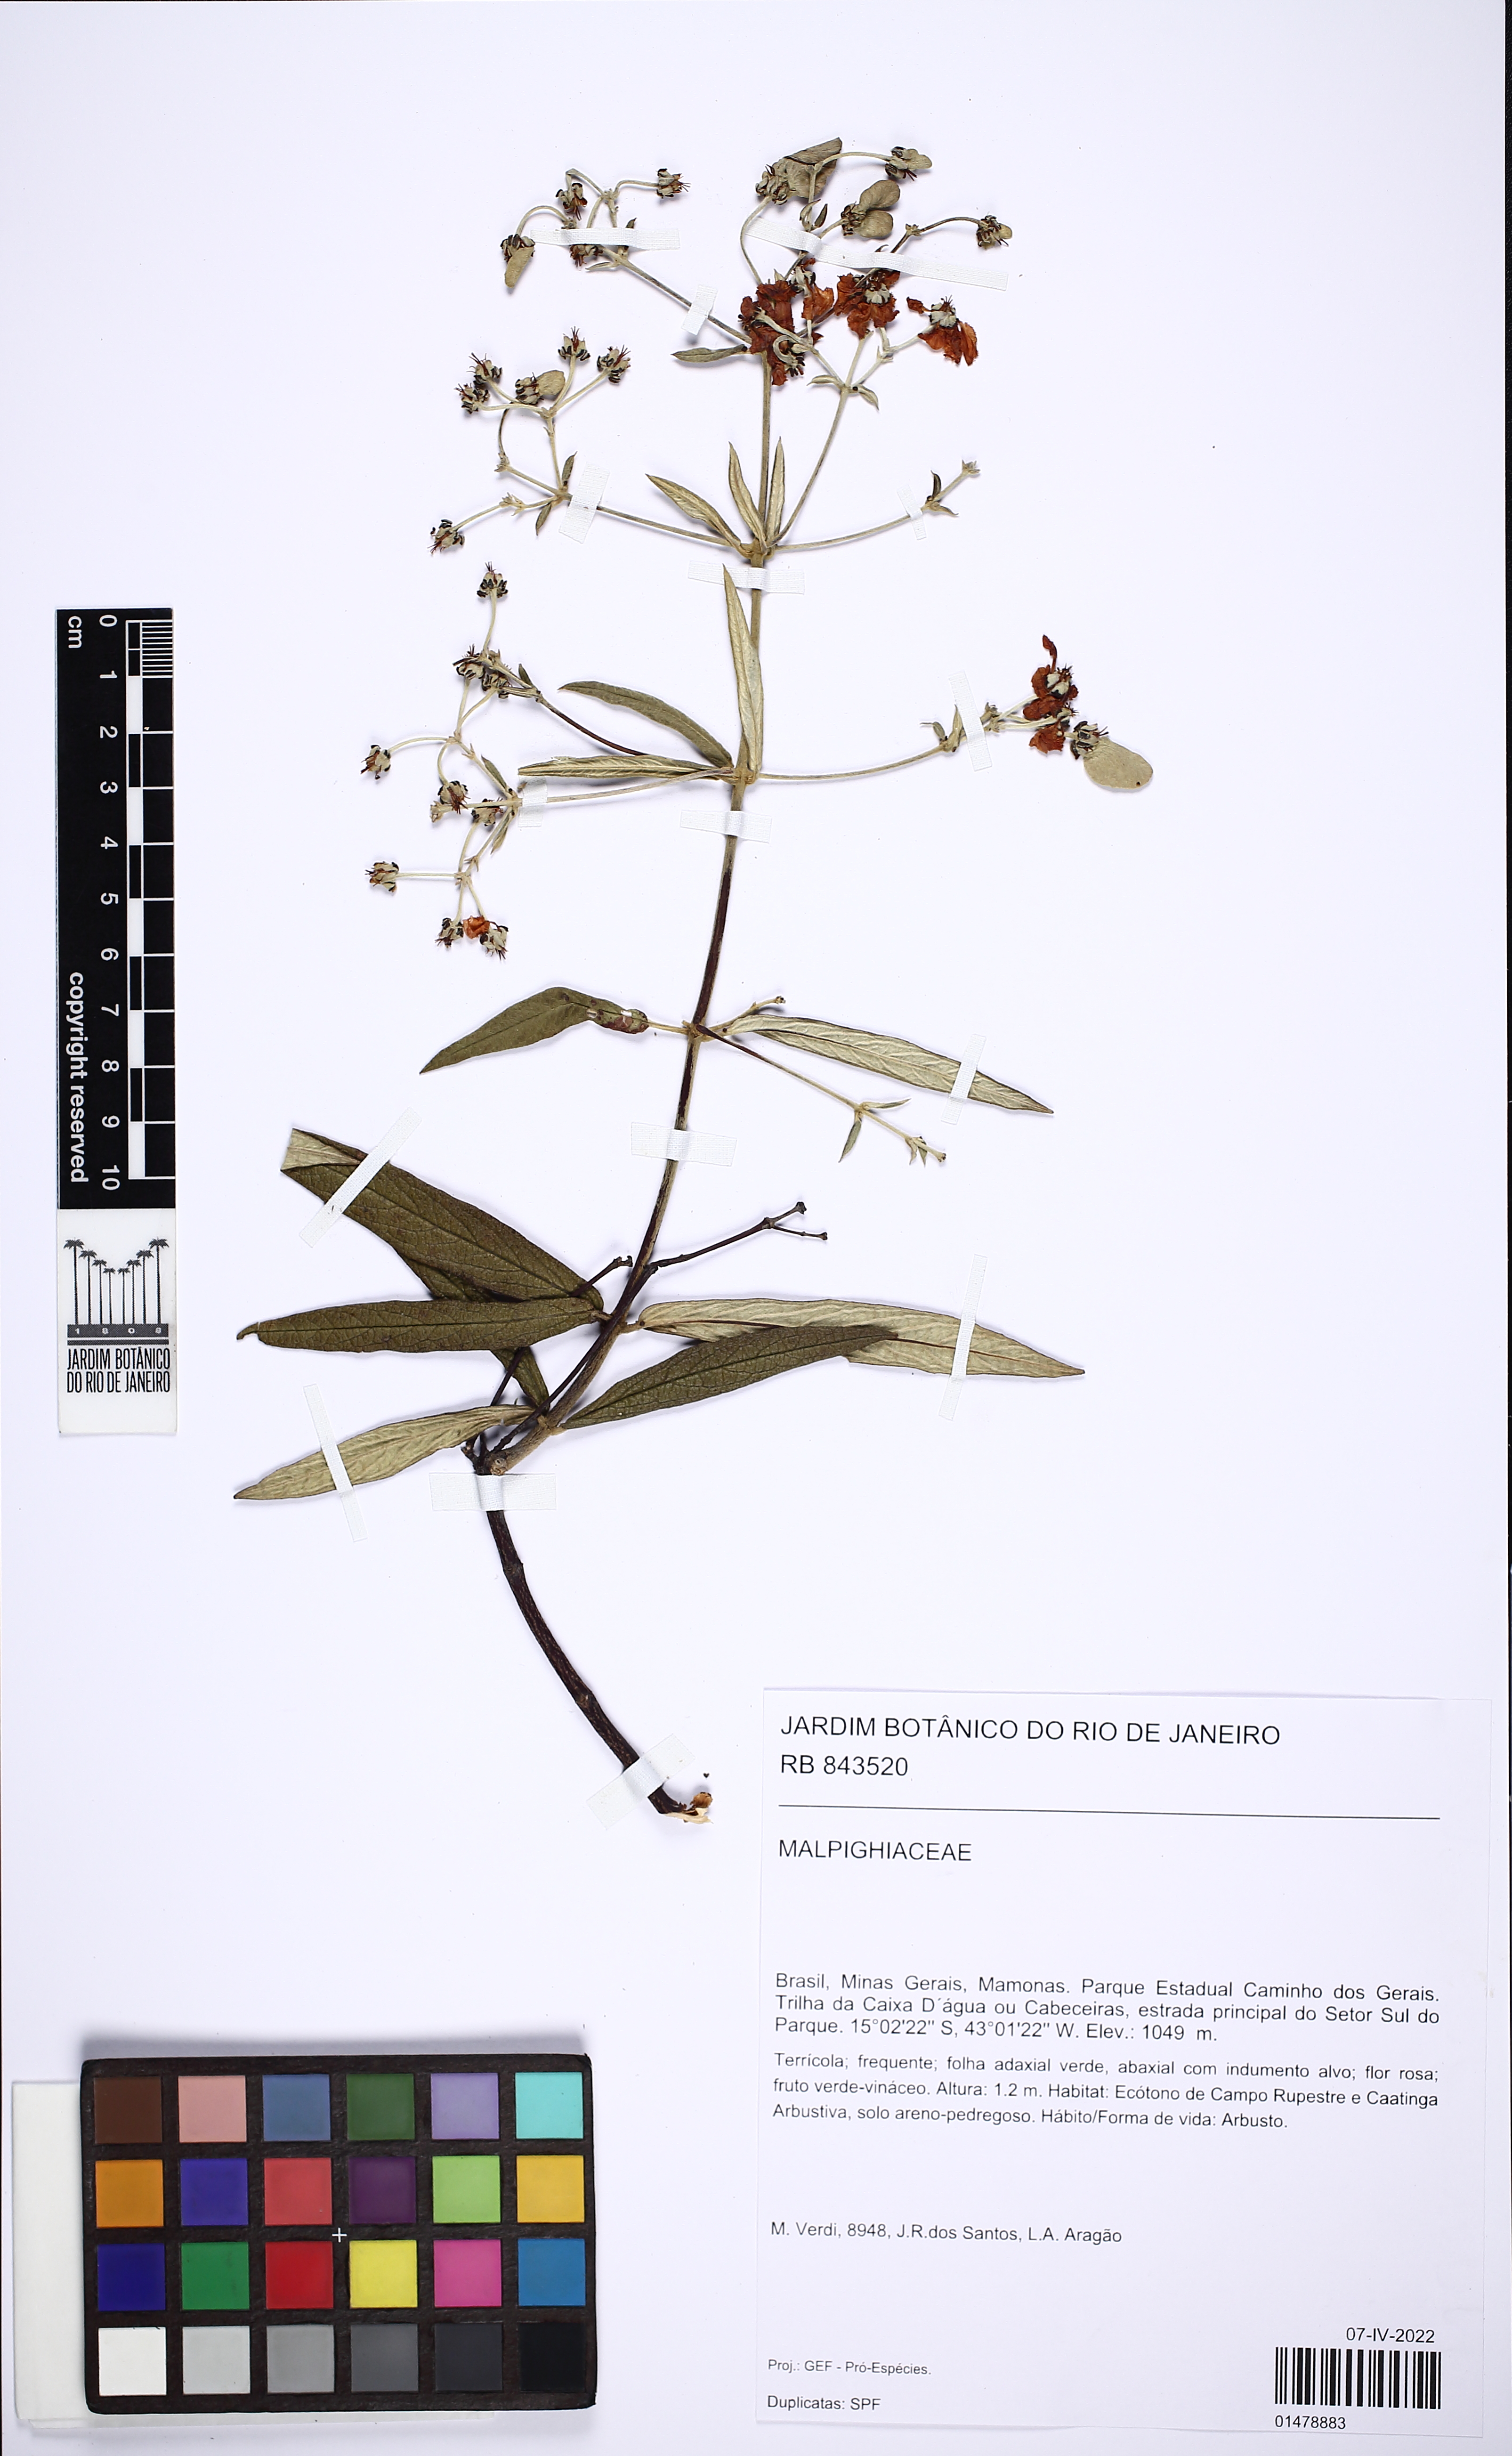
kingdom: Plantae
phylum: Tracheophyta
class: Magnoliopsida
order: Malpighiales
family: Malpighiaceae
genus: Banisteriopsis
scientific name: Banisteriopsis
